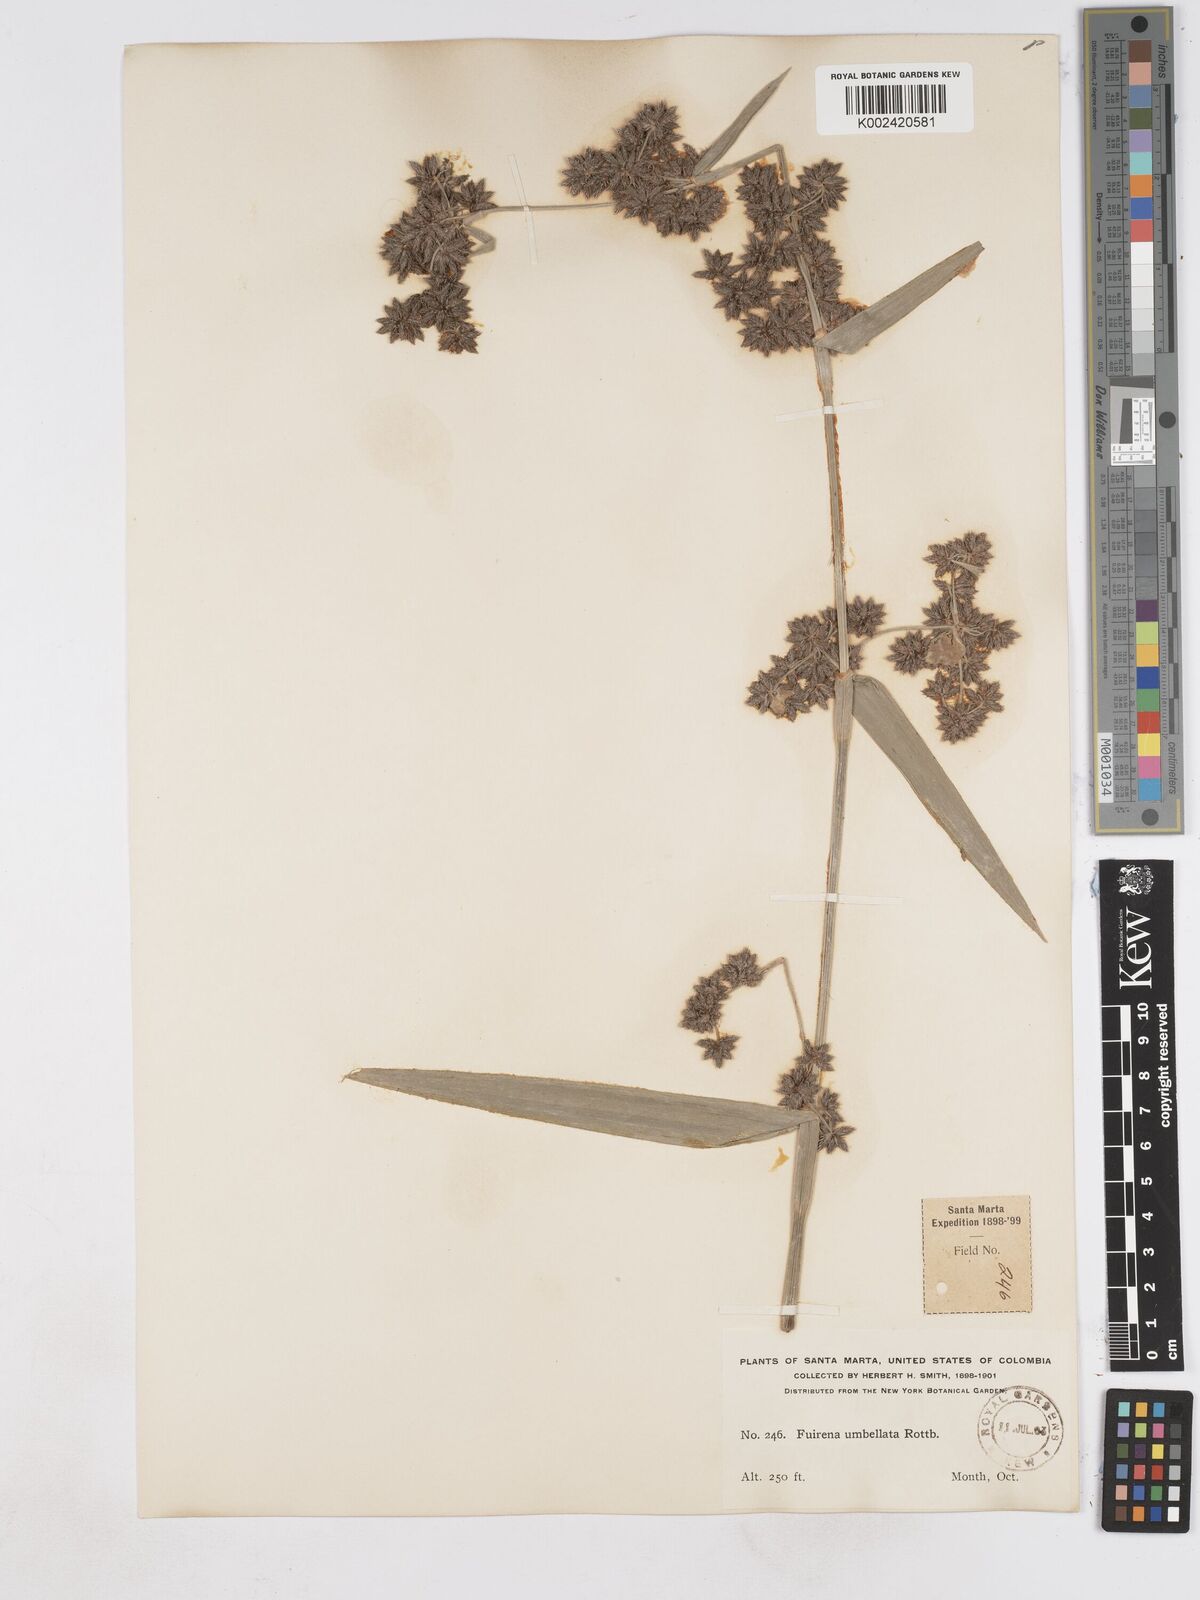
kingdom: Plantae
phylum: Tracheophyta
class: Liliopsida
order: Poales
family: Cyperaceae
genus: Fuirena
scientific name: Fuirena umbellata
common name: Yefen
